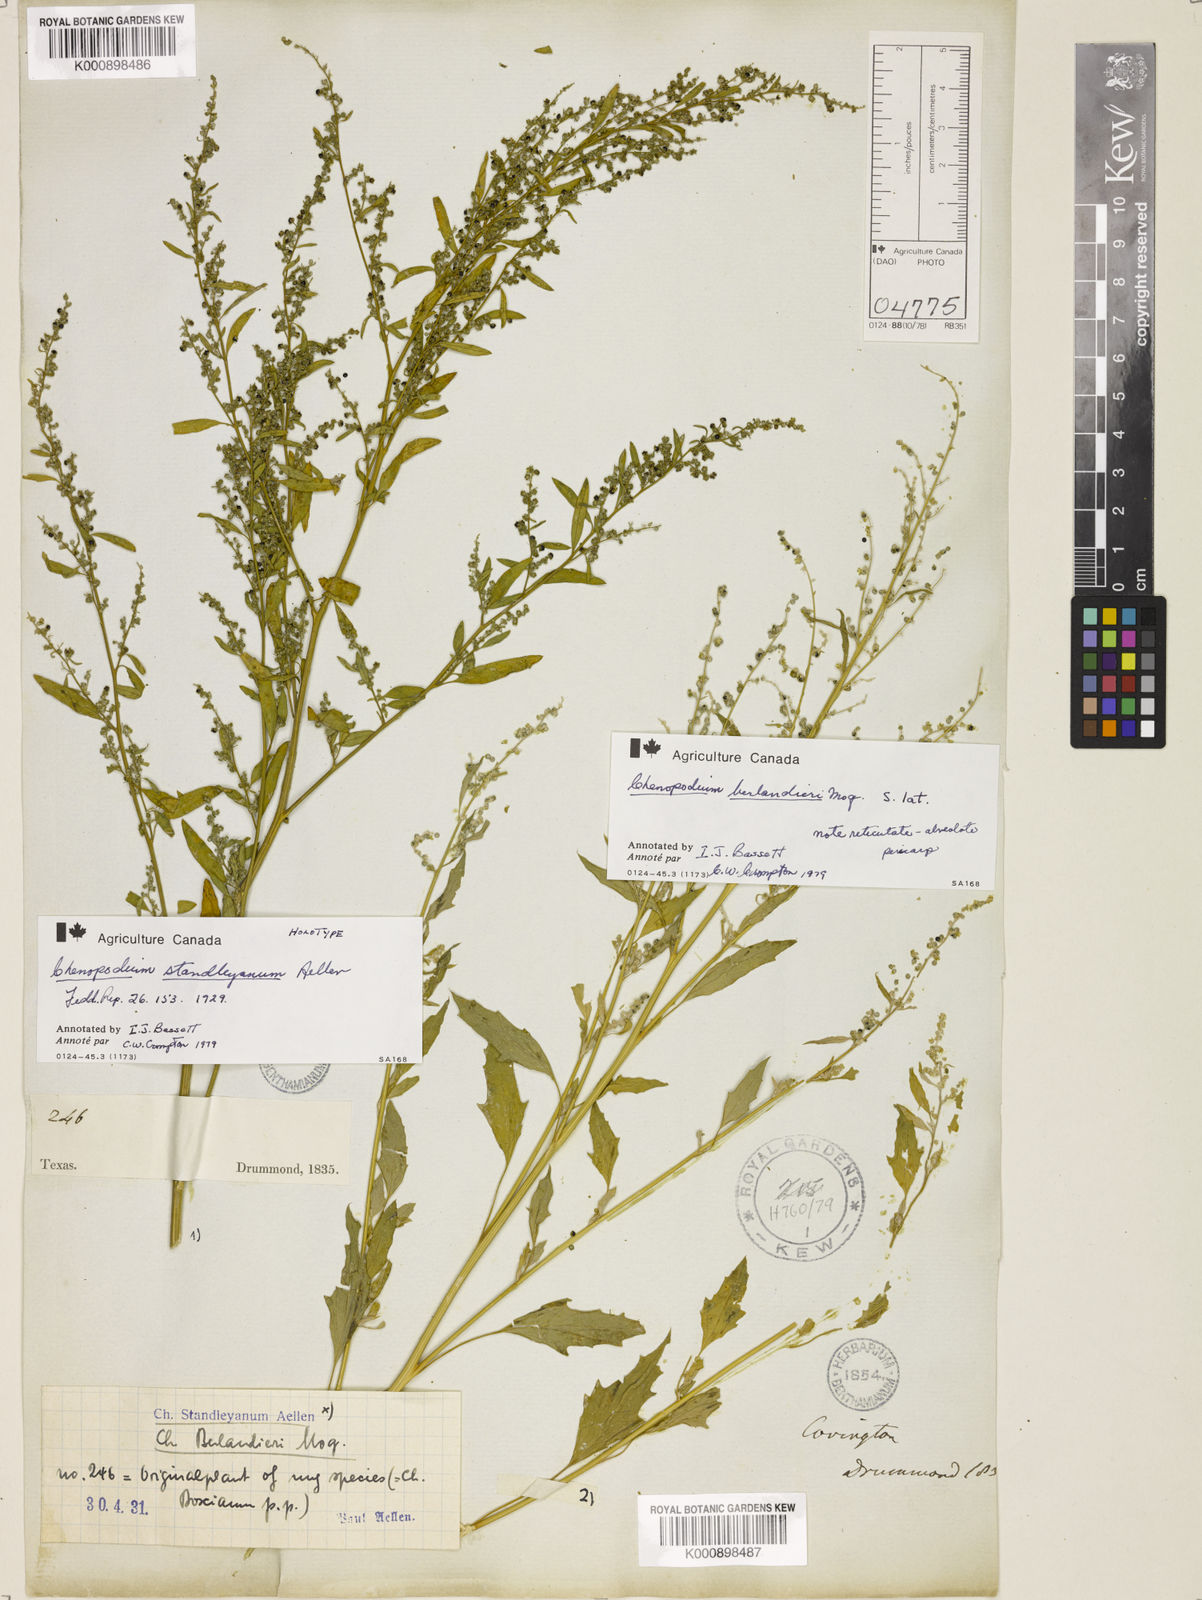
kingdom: Plantae
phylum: Tracheophyta
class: Magnoliopsida
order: Caryophyllales
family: Amaranthaceae
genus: Chenopodiastrum
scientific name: Chenopodiastrum standleyanum
